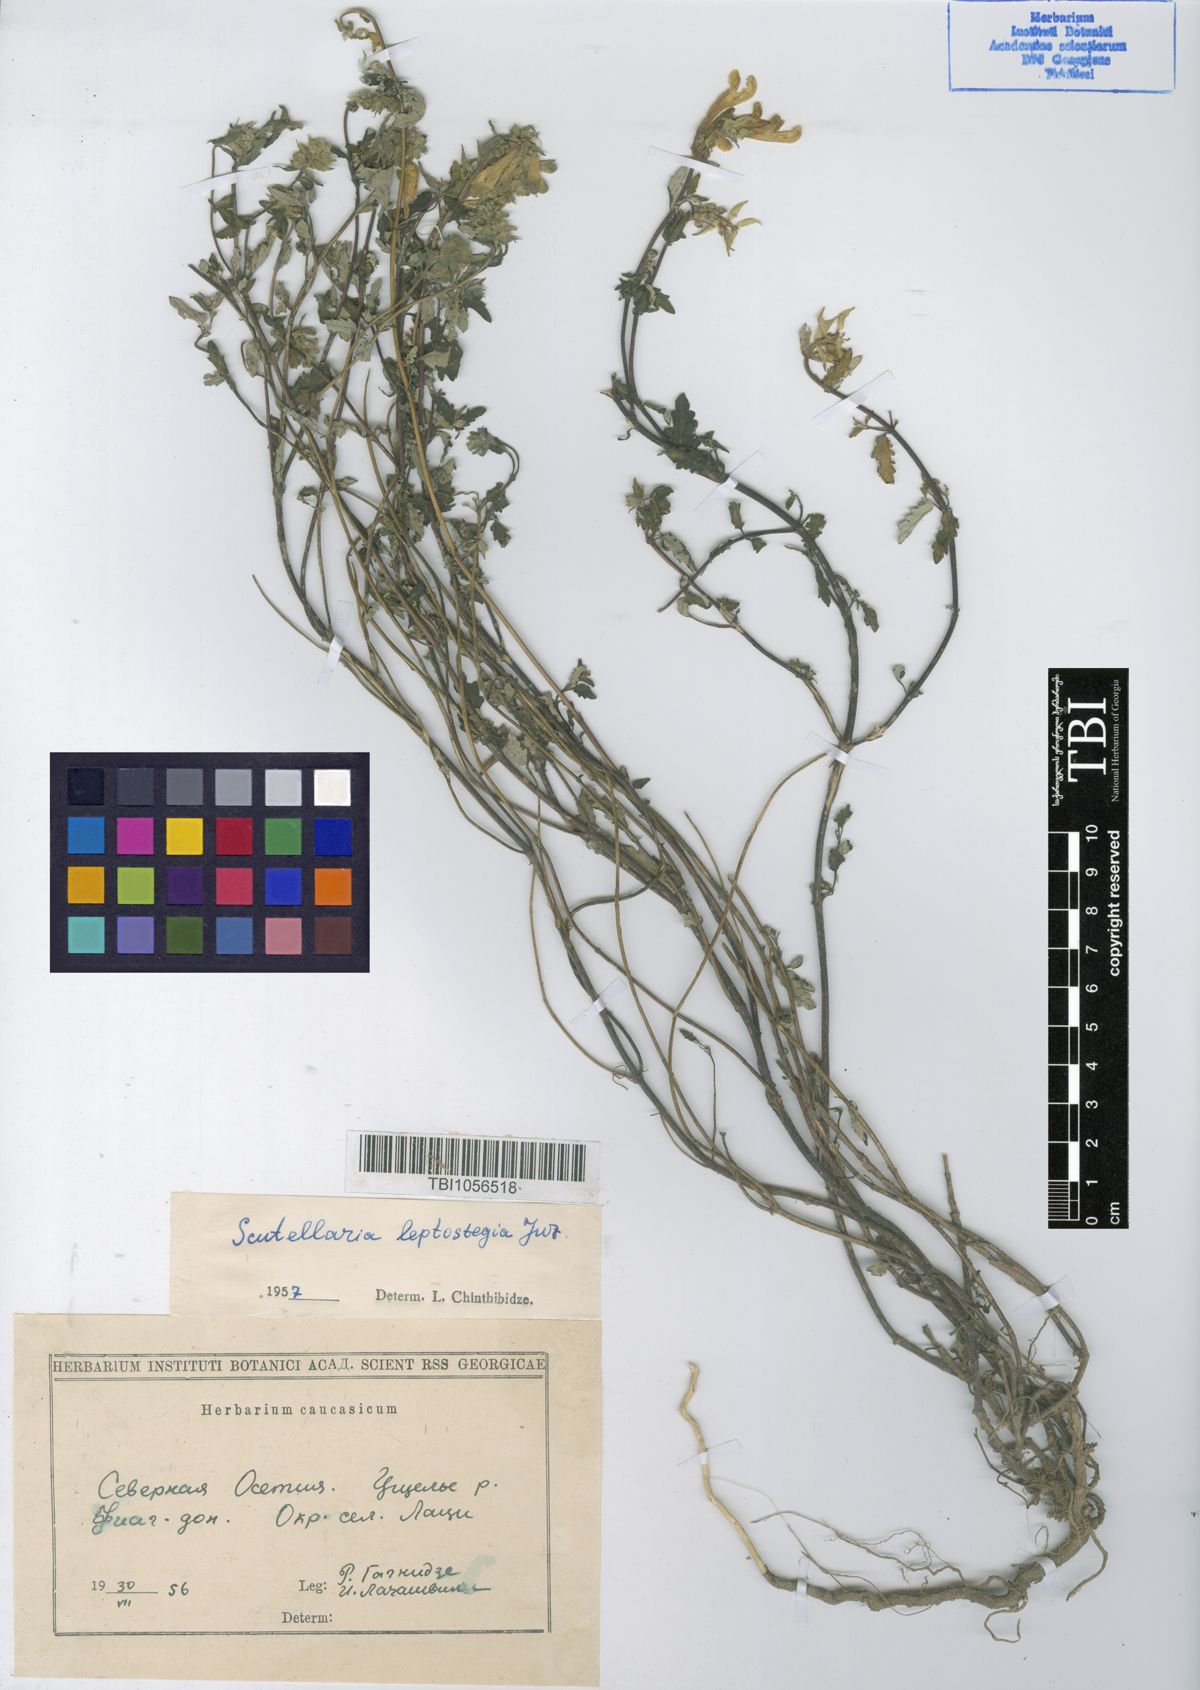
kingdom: Plantae
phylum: Tracheophyta
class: Magnoliopsida
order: Lamiales
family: Lamiaceae
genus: Scutellaria
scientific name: Scutellaria leptostegia
